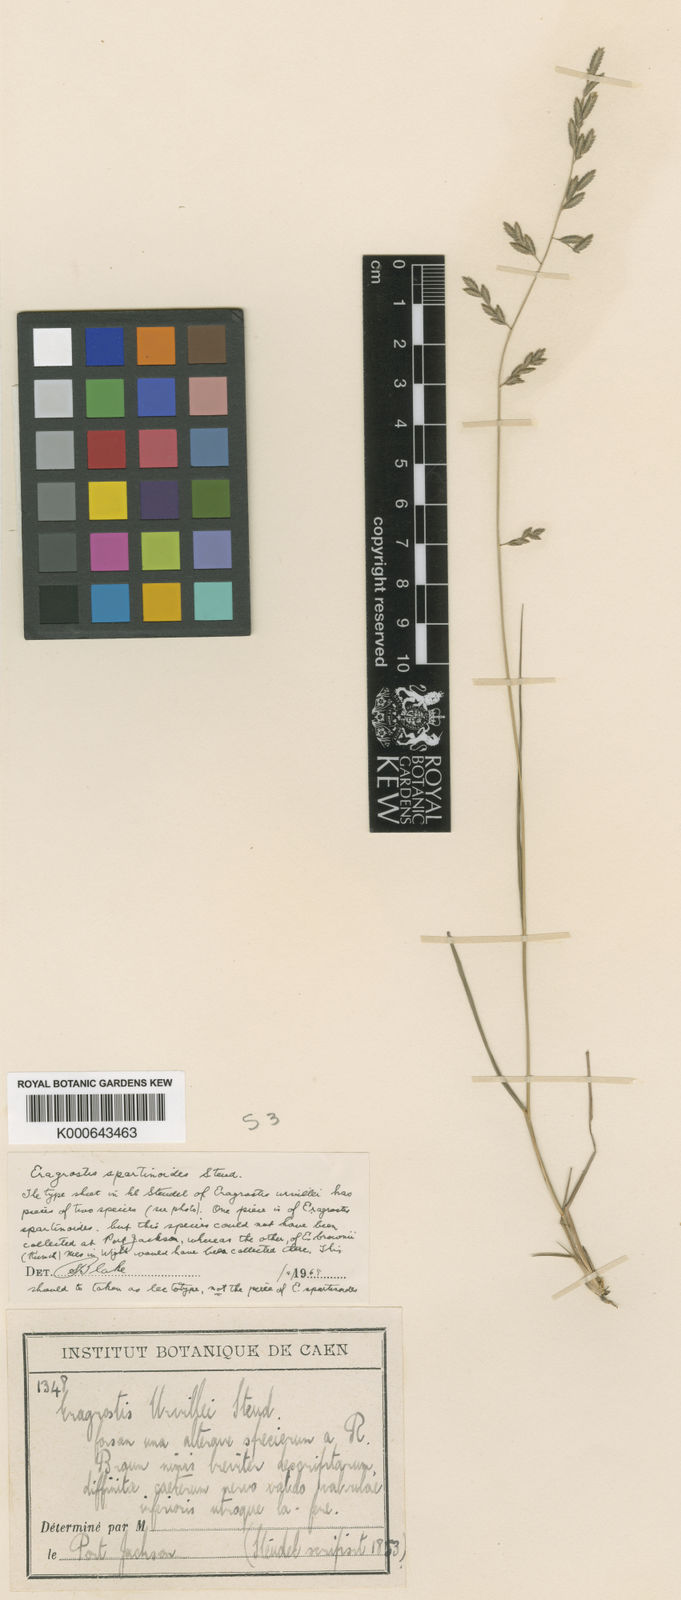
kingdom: Plantae
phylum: Tracheophyta
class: Liliopsida
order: Poales
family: Poaceae
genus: Eragrostis
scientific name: Eragrostis brownii
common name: Lovegrass
